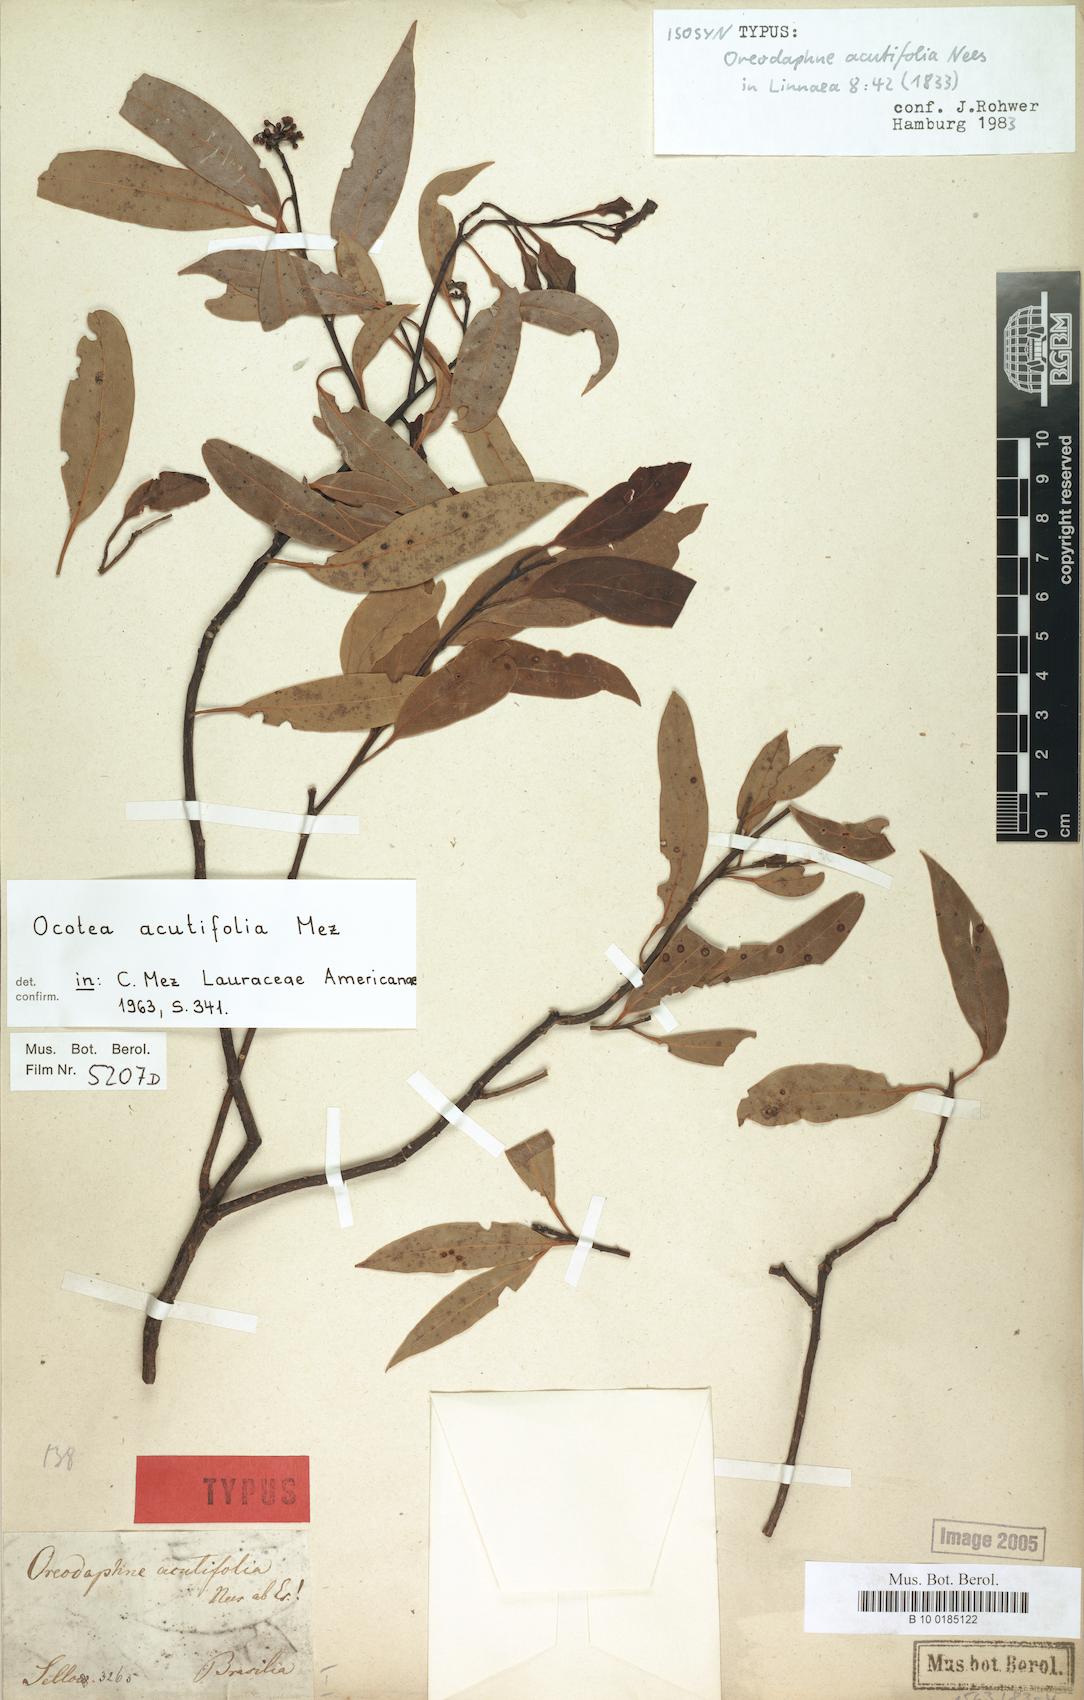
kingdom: Plantae
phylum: Tracheophyta
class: Magnoliopsida
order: Laurales
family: Lauraceae
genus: Ocotea
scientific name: Ocotea acutifolia
